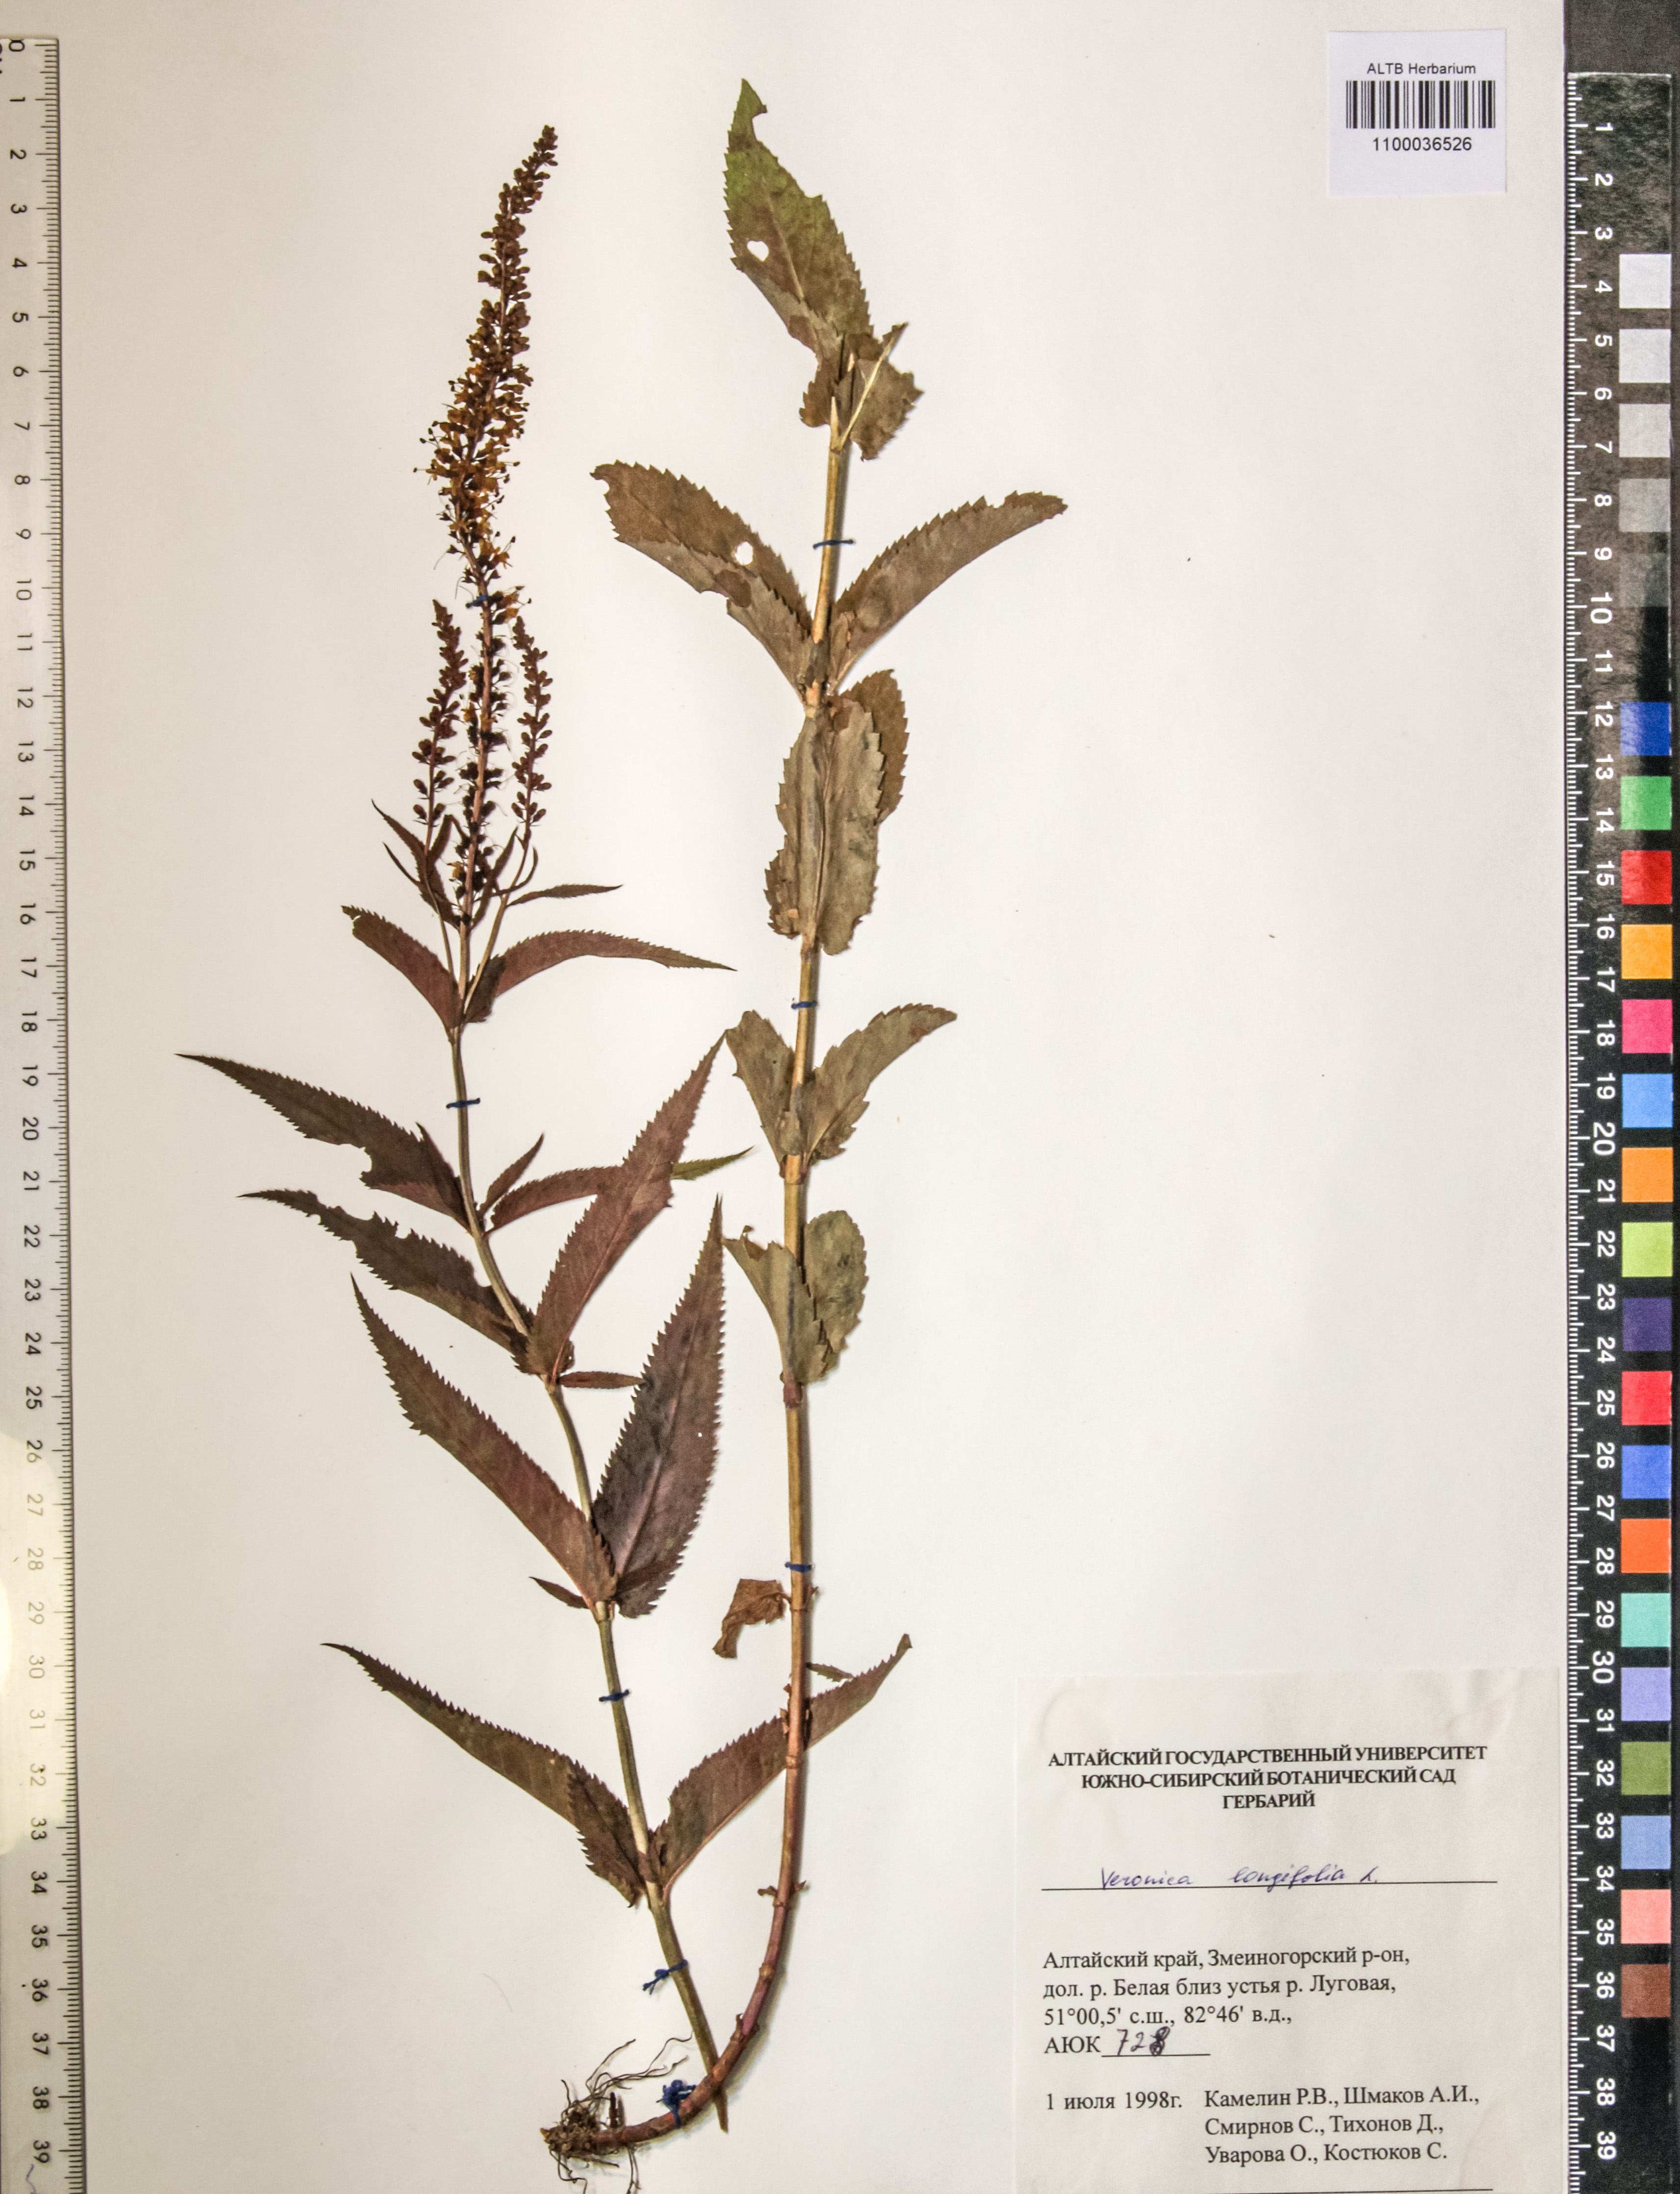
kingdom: Plantae
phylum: Tracheophyta
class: Magnoliopsida
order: Lamiales
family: Plantaginaceae
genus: Veronica
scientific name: Veronica longifolia
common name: Garden speedwell
